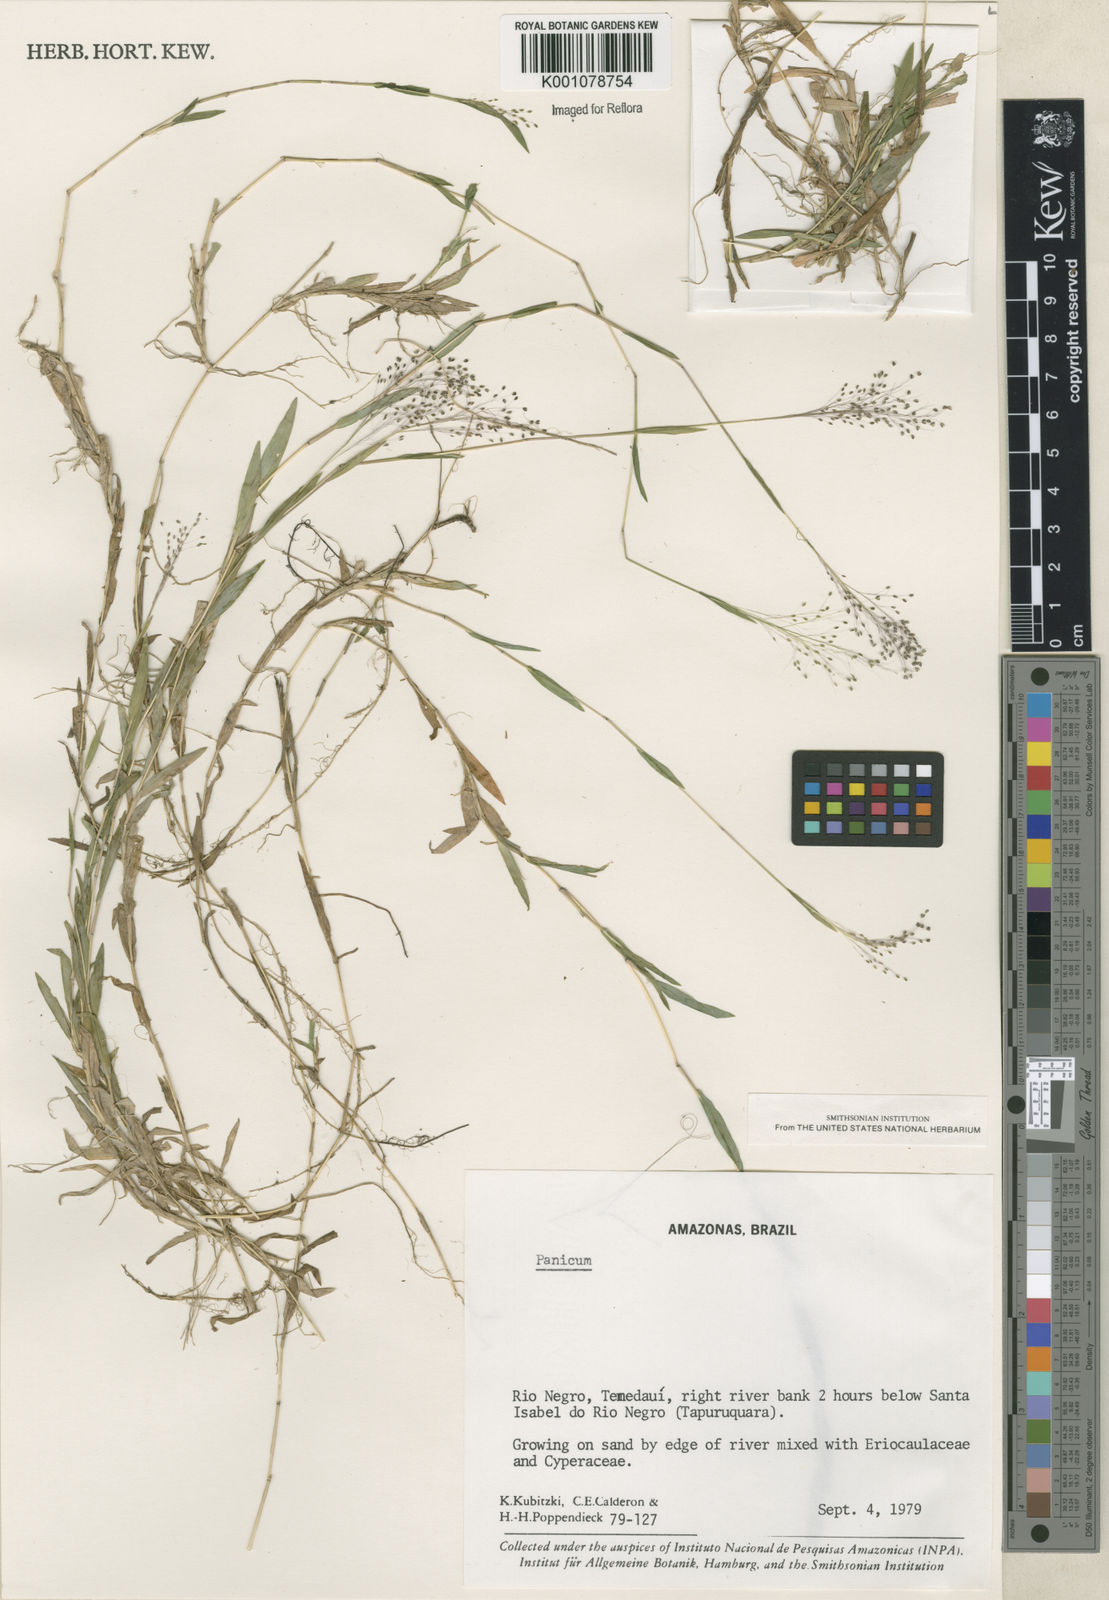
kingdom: Plantae
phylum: Tracheophyta
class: Liliopsida
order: Poales
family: Poaceae
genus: Panicum
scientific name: Panicum
